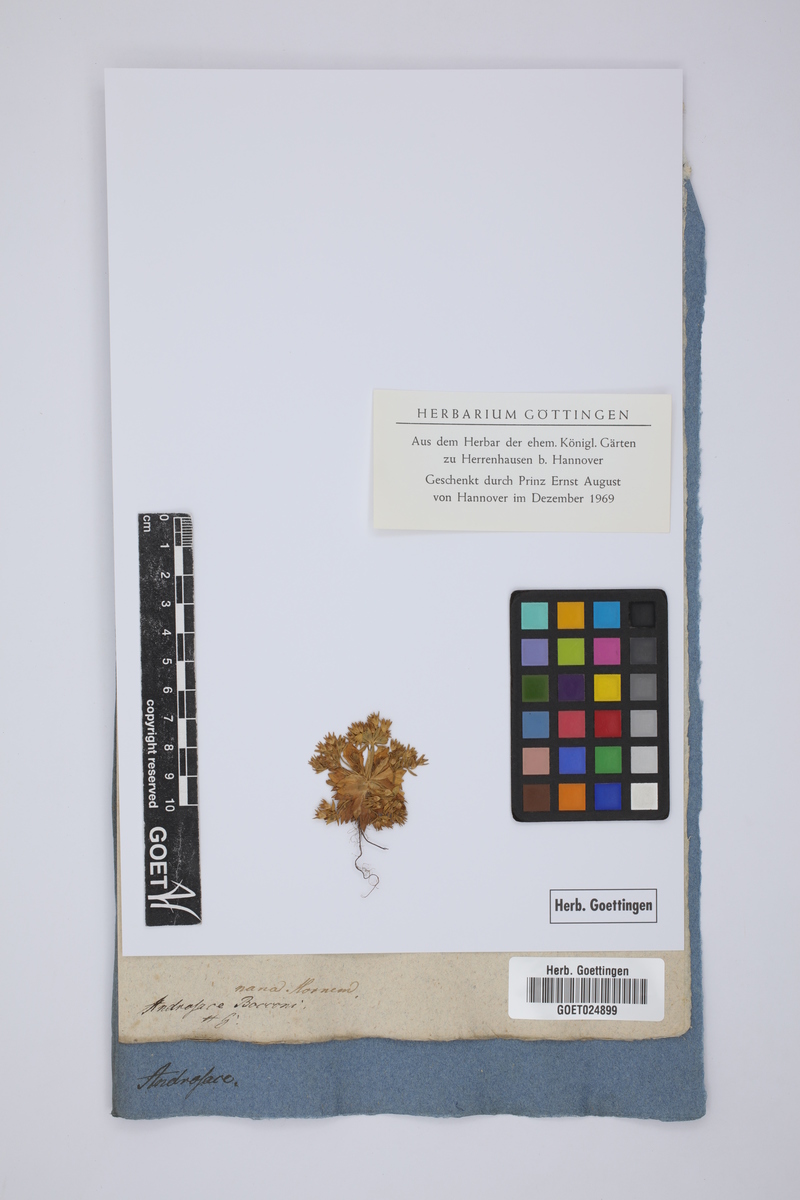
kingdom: Plantae
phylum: Tracheophyta
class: Magnoliopsida
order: Ericales
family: Primulaceae
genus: Androsace
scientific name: Androsace elongata
